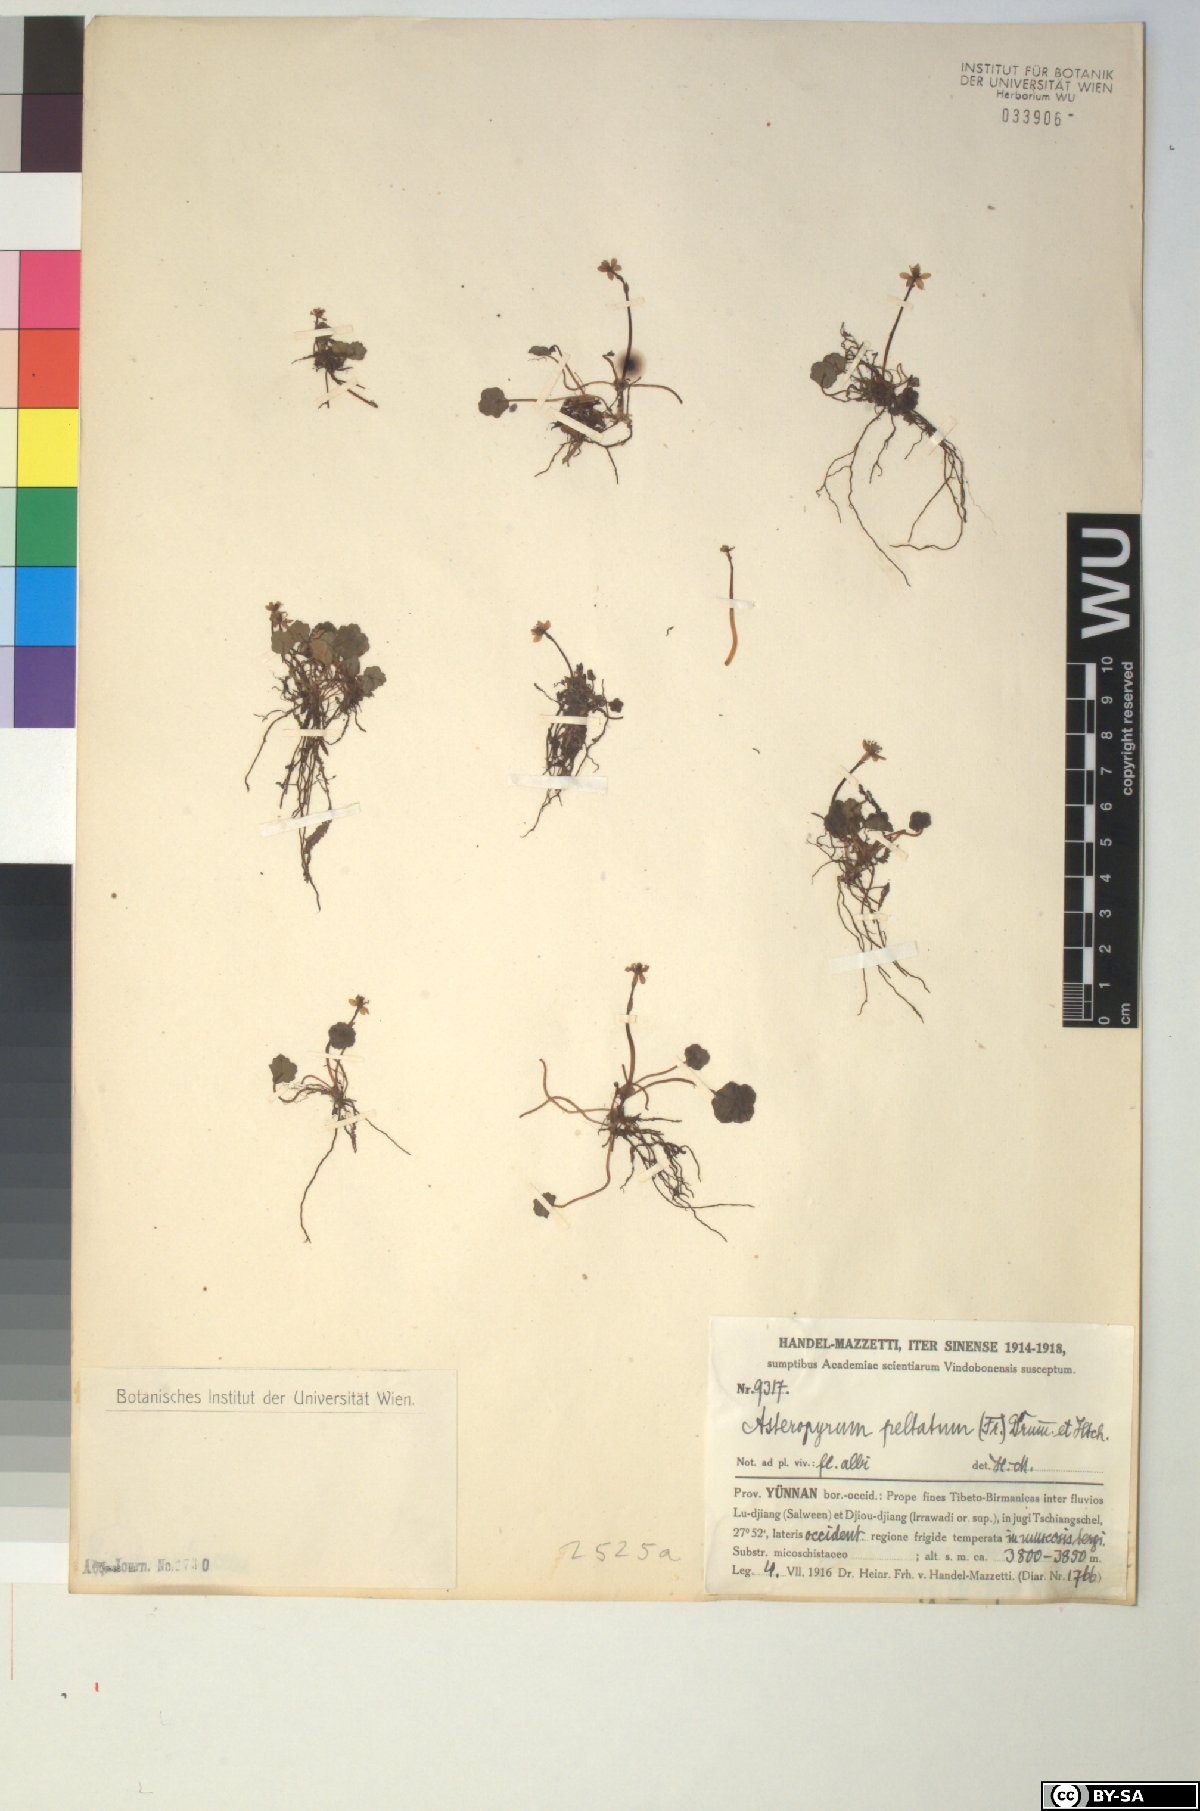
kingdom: Plantae
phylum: Tracheophyta
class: Magnoliopsida
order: Ranunculales
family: Ranunculaceae
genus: Asteropyrum
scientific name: Asteropyrum peltatum
